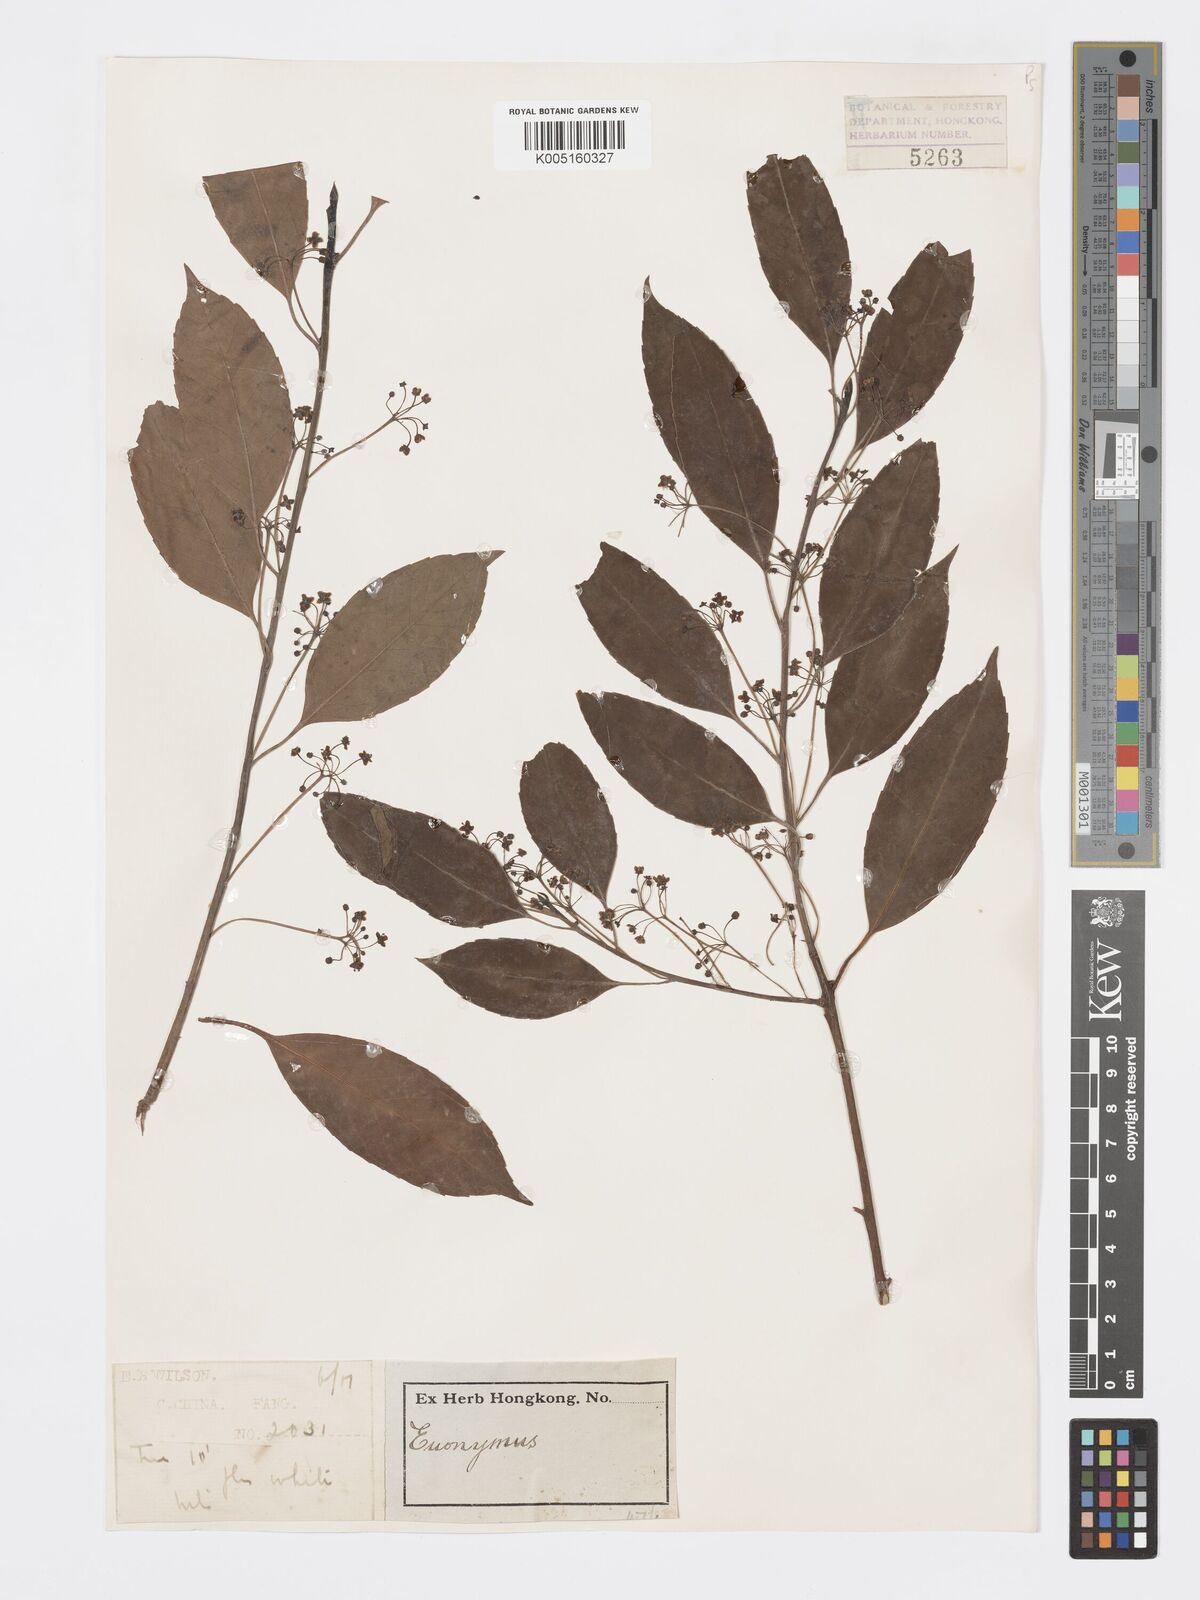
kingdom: Plantae
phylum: Tracheophyta
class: Magnoliopsida
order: Celastrales
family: Celastraceae
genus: Euonymus
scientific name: Euonymus
